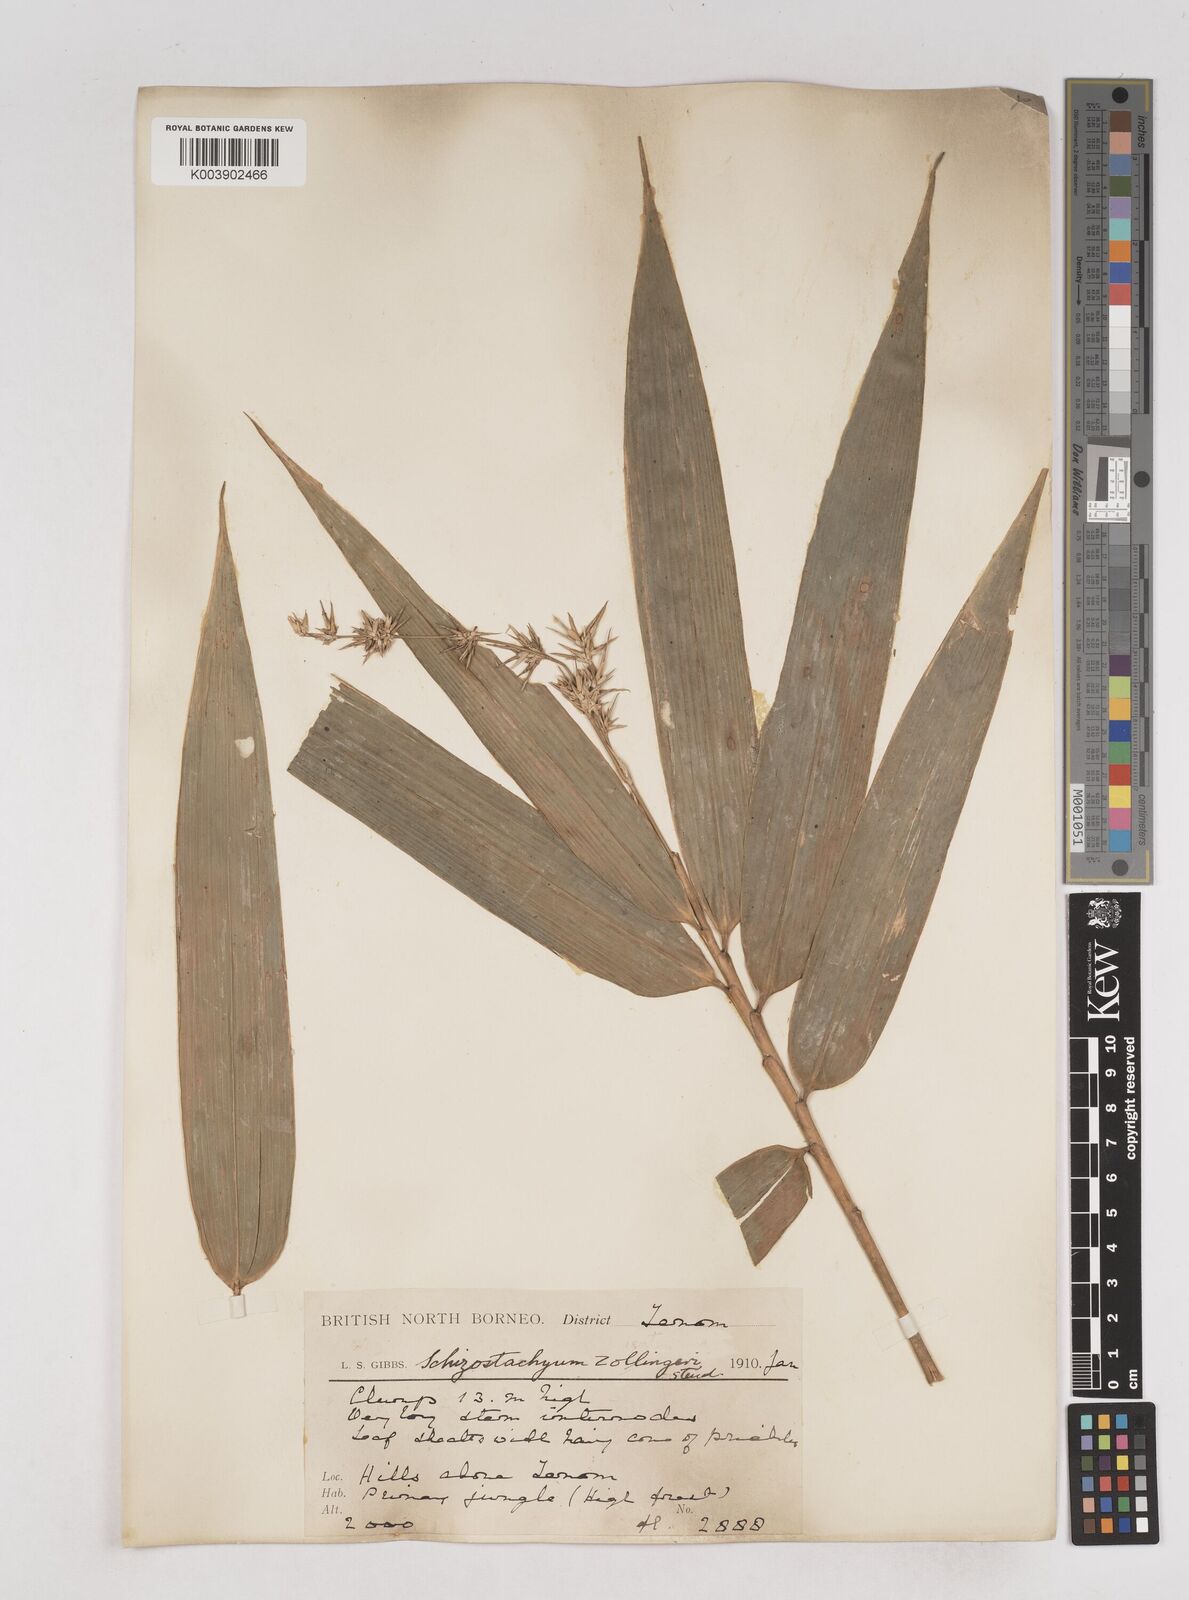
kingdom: Plantae
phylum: Tracheophyta
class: Liliopsida
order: Poales
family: Poaceae
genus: Schizostachyum
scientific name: Schizostachyum
